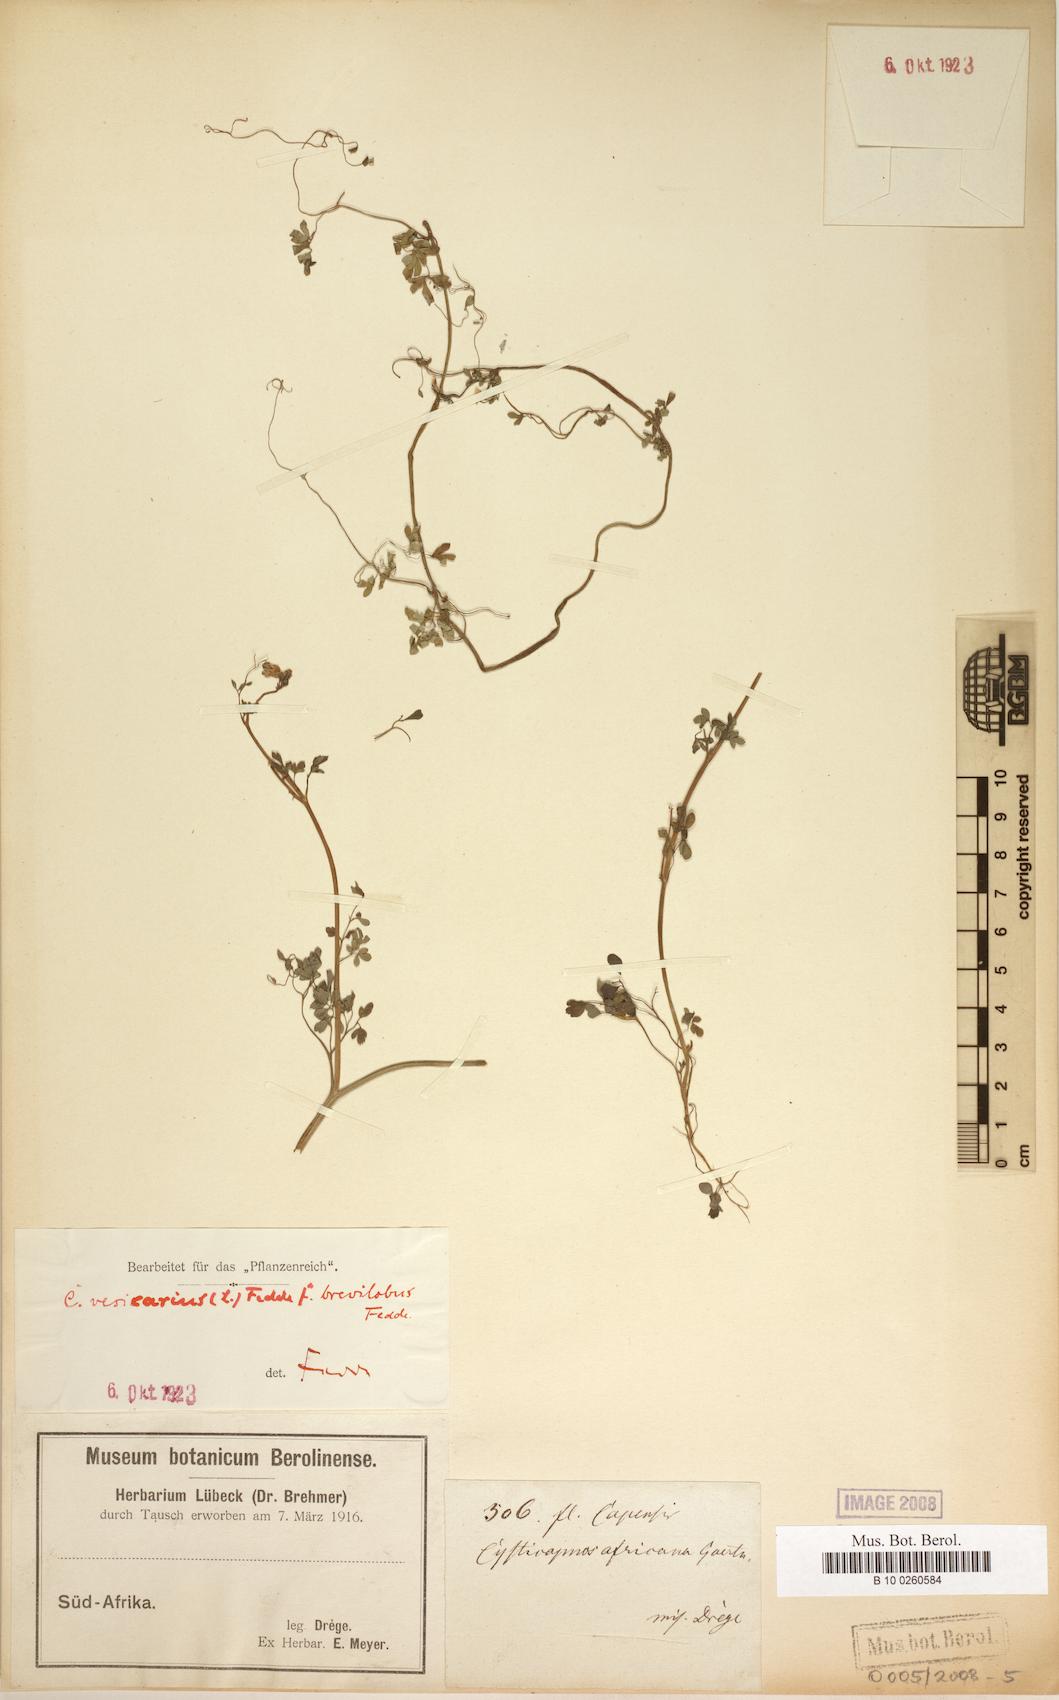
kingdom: Plantae
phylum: Tracheophyta
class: Magnoliopsida
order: Ranunculales
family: Papaveraceae
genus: Cysticapnos
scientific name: Cysticapnos
